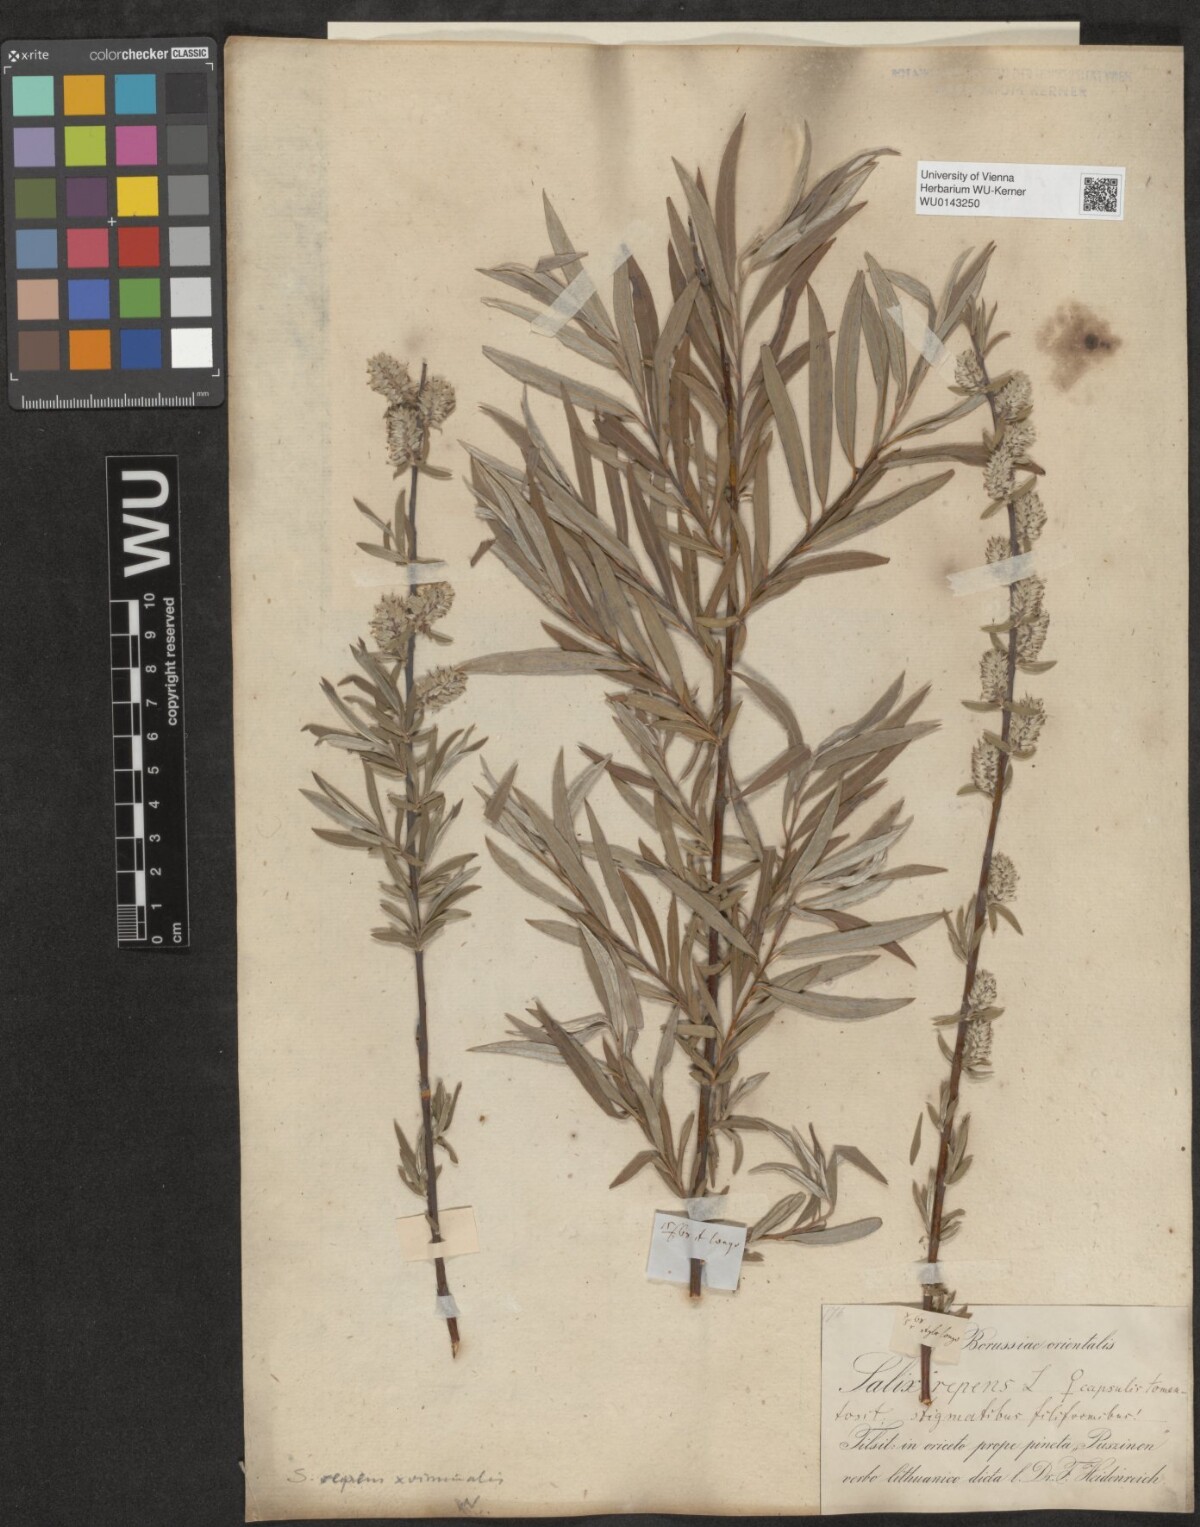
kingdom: Plantae
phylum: Tracheophyta
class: Magnoliopsida
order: Malpighiales
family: Salicaceae
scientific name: Salicaceae
